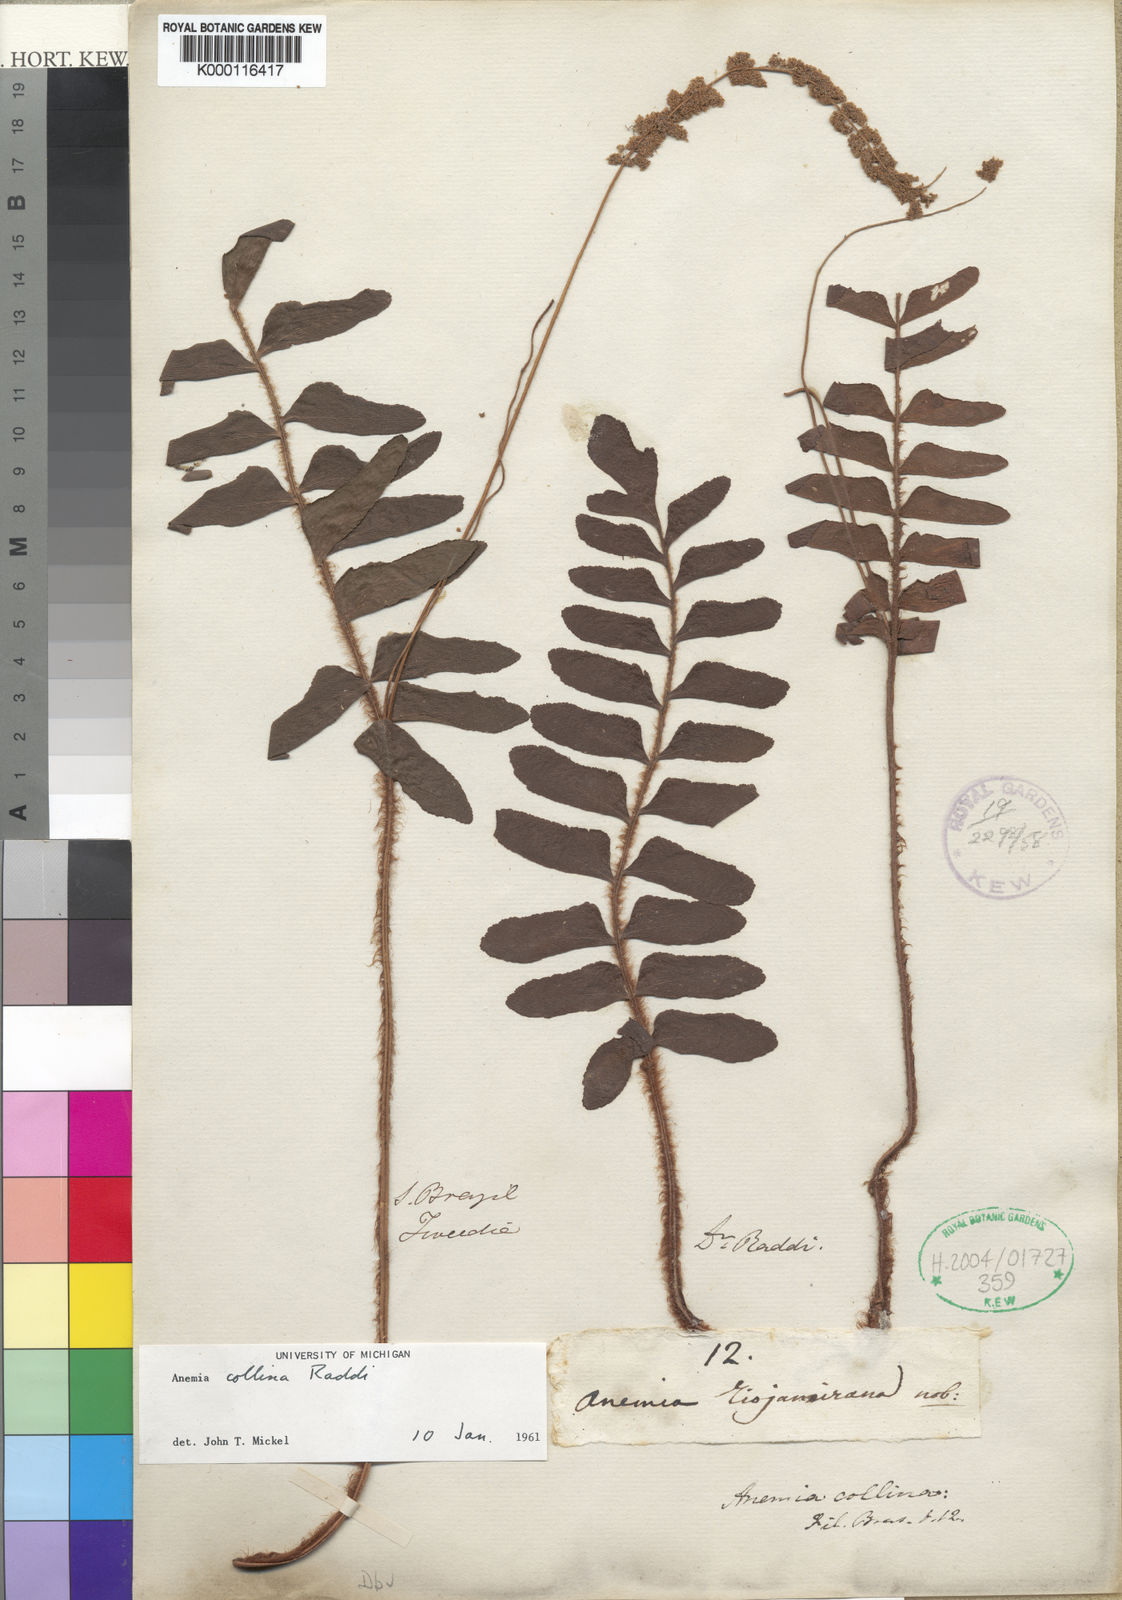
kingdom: Plantae
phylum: Tracheophyta
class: Polypodiopsida
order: Schizaeales
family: Anemiaceae
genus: Anemia
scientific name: Anemia collina
